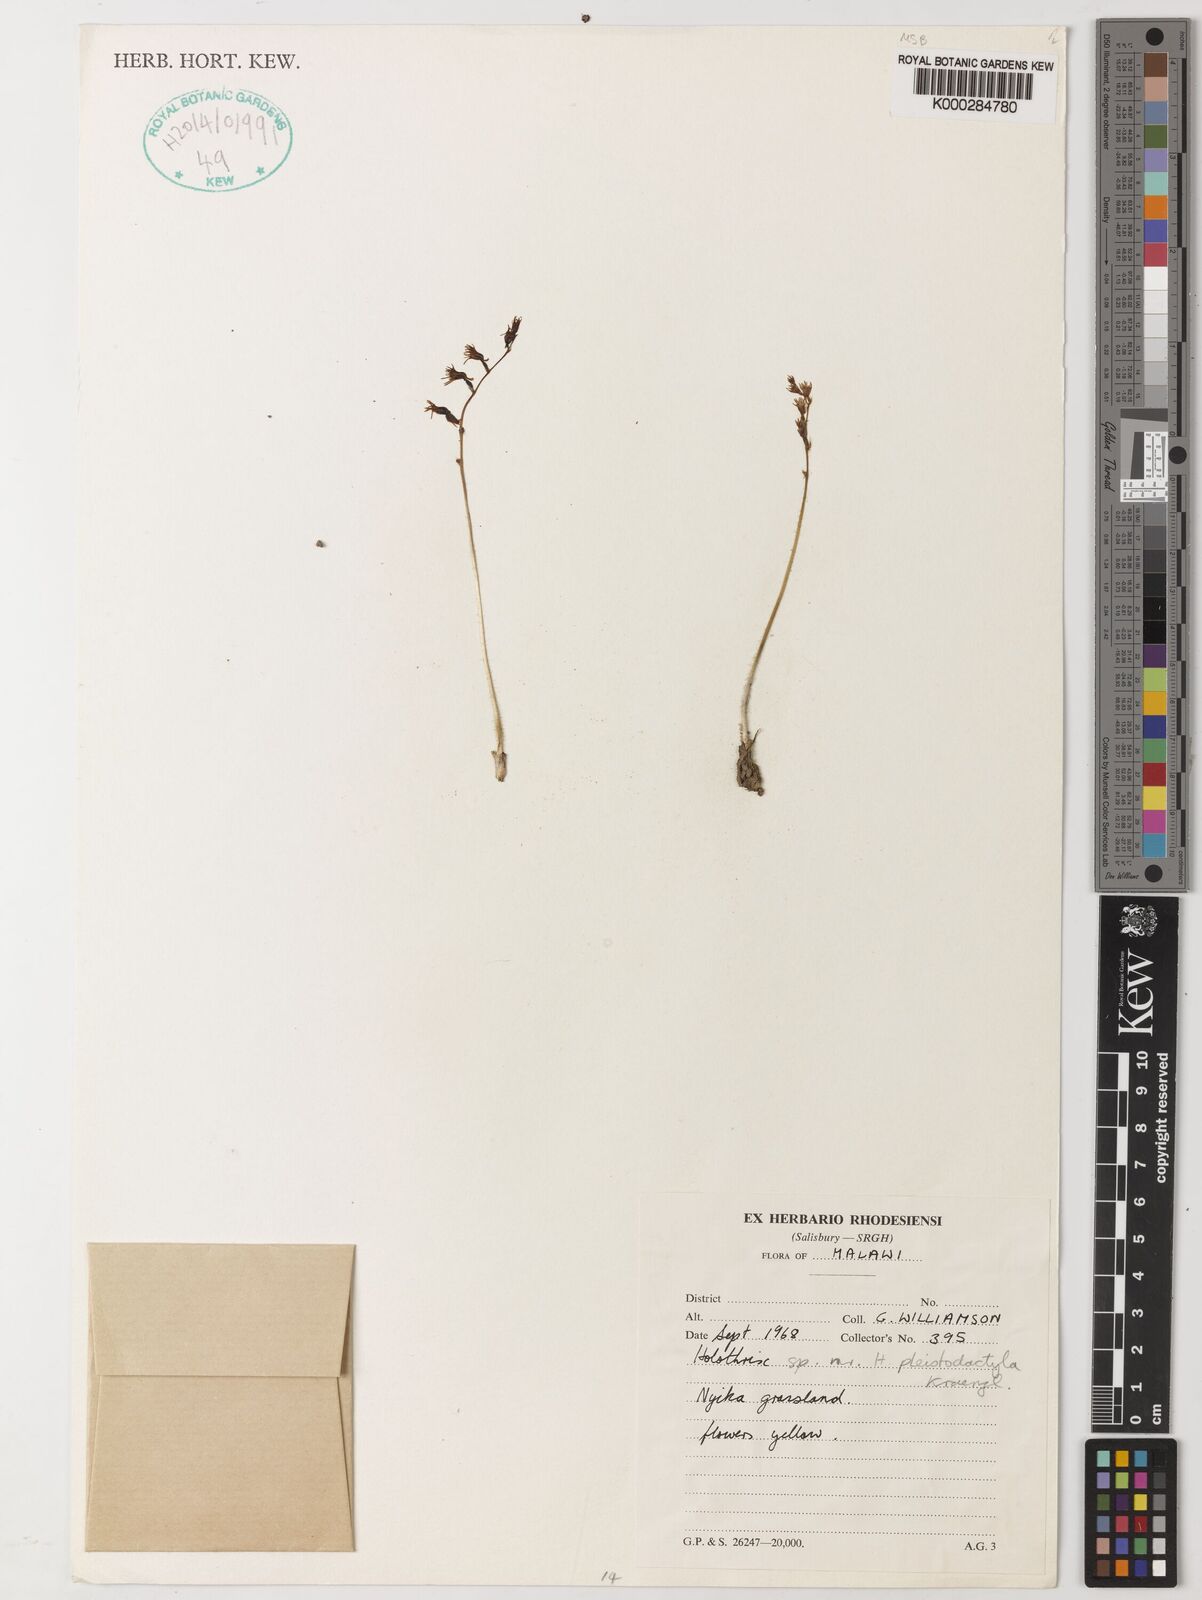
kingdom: Plantae
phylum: Tracheophyta
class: Liliopsida
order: Asparagales
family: Orchidaceae
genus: Holothrix
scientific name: Holothrix pleistodactyla
